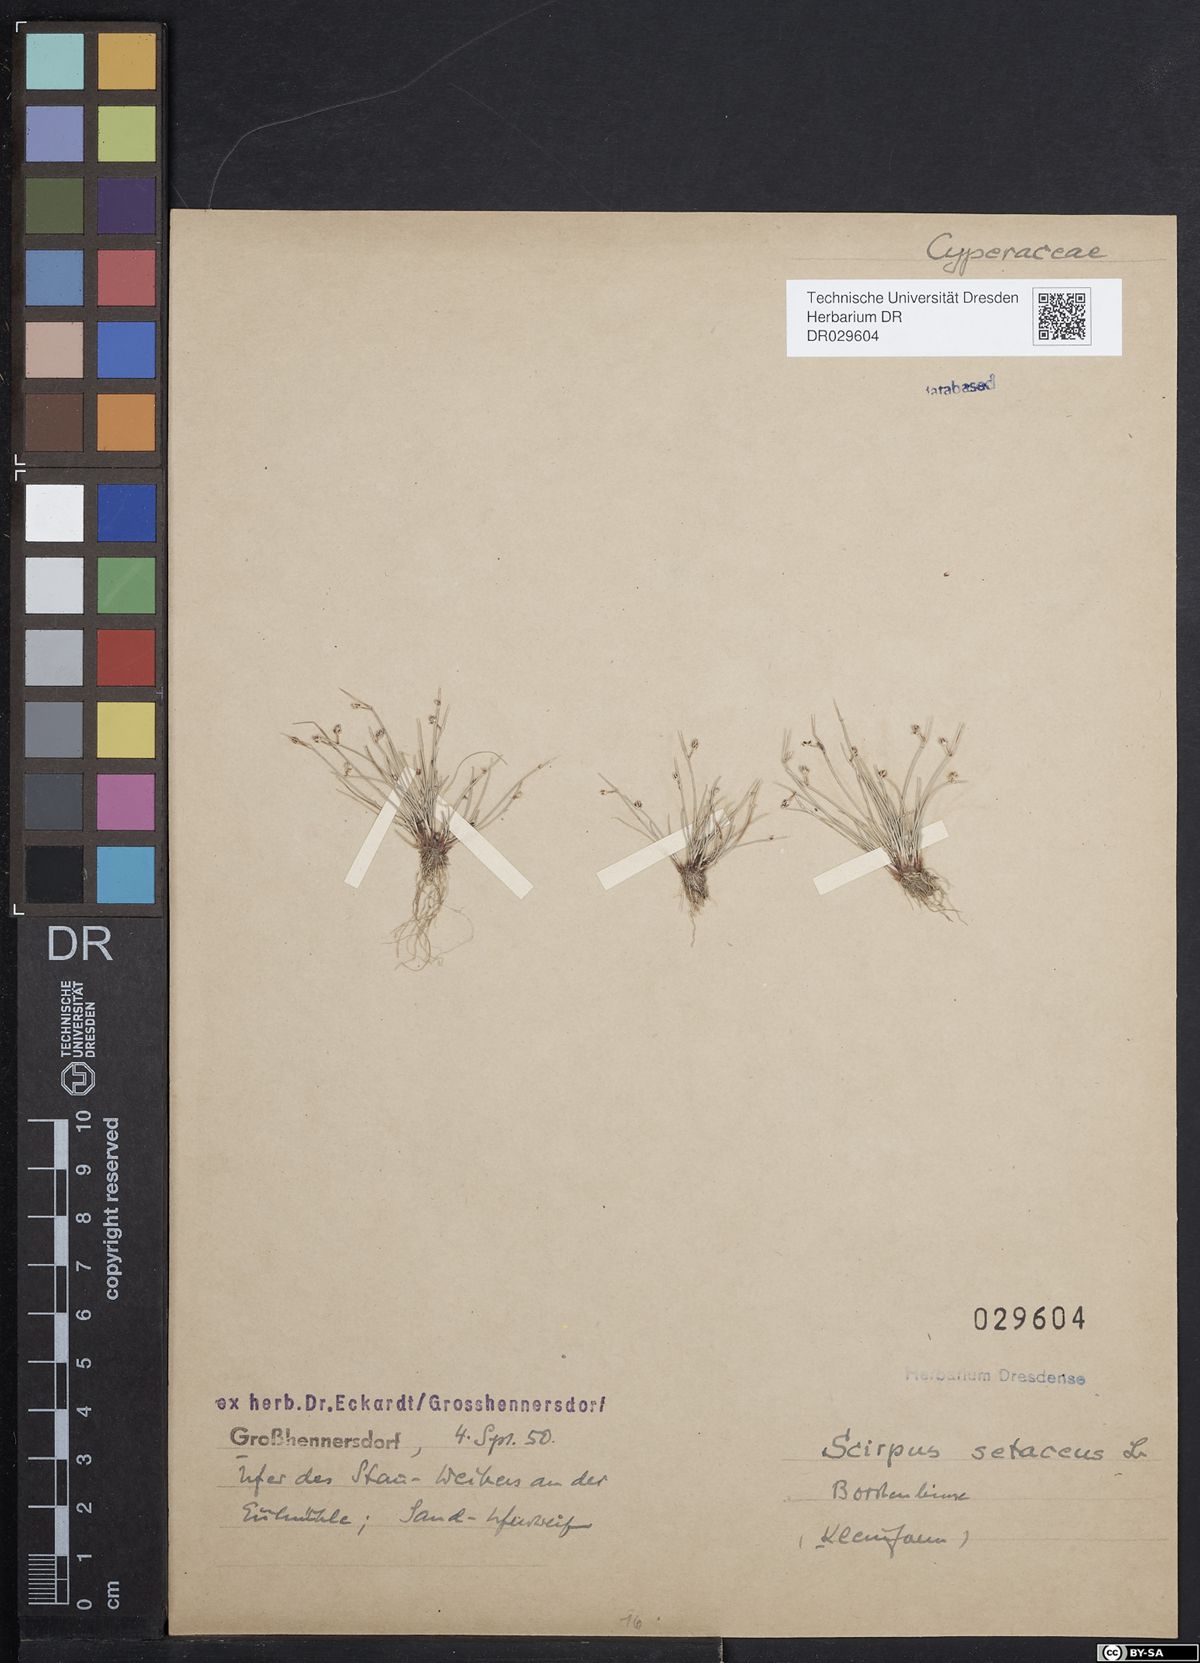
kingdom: Plantae
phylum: Tracheophyta
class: Liliopsida
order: Poales
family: Cyperaceae
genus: Isolepis
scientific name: Isolepis setacea
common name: Bristle club-rush
